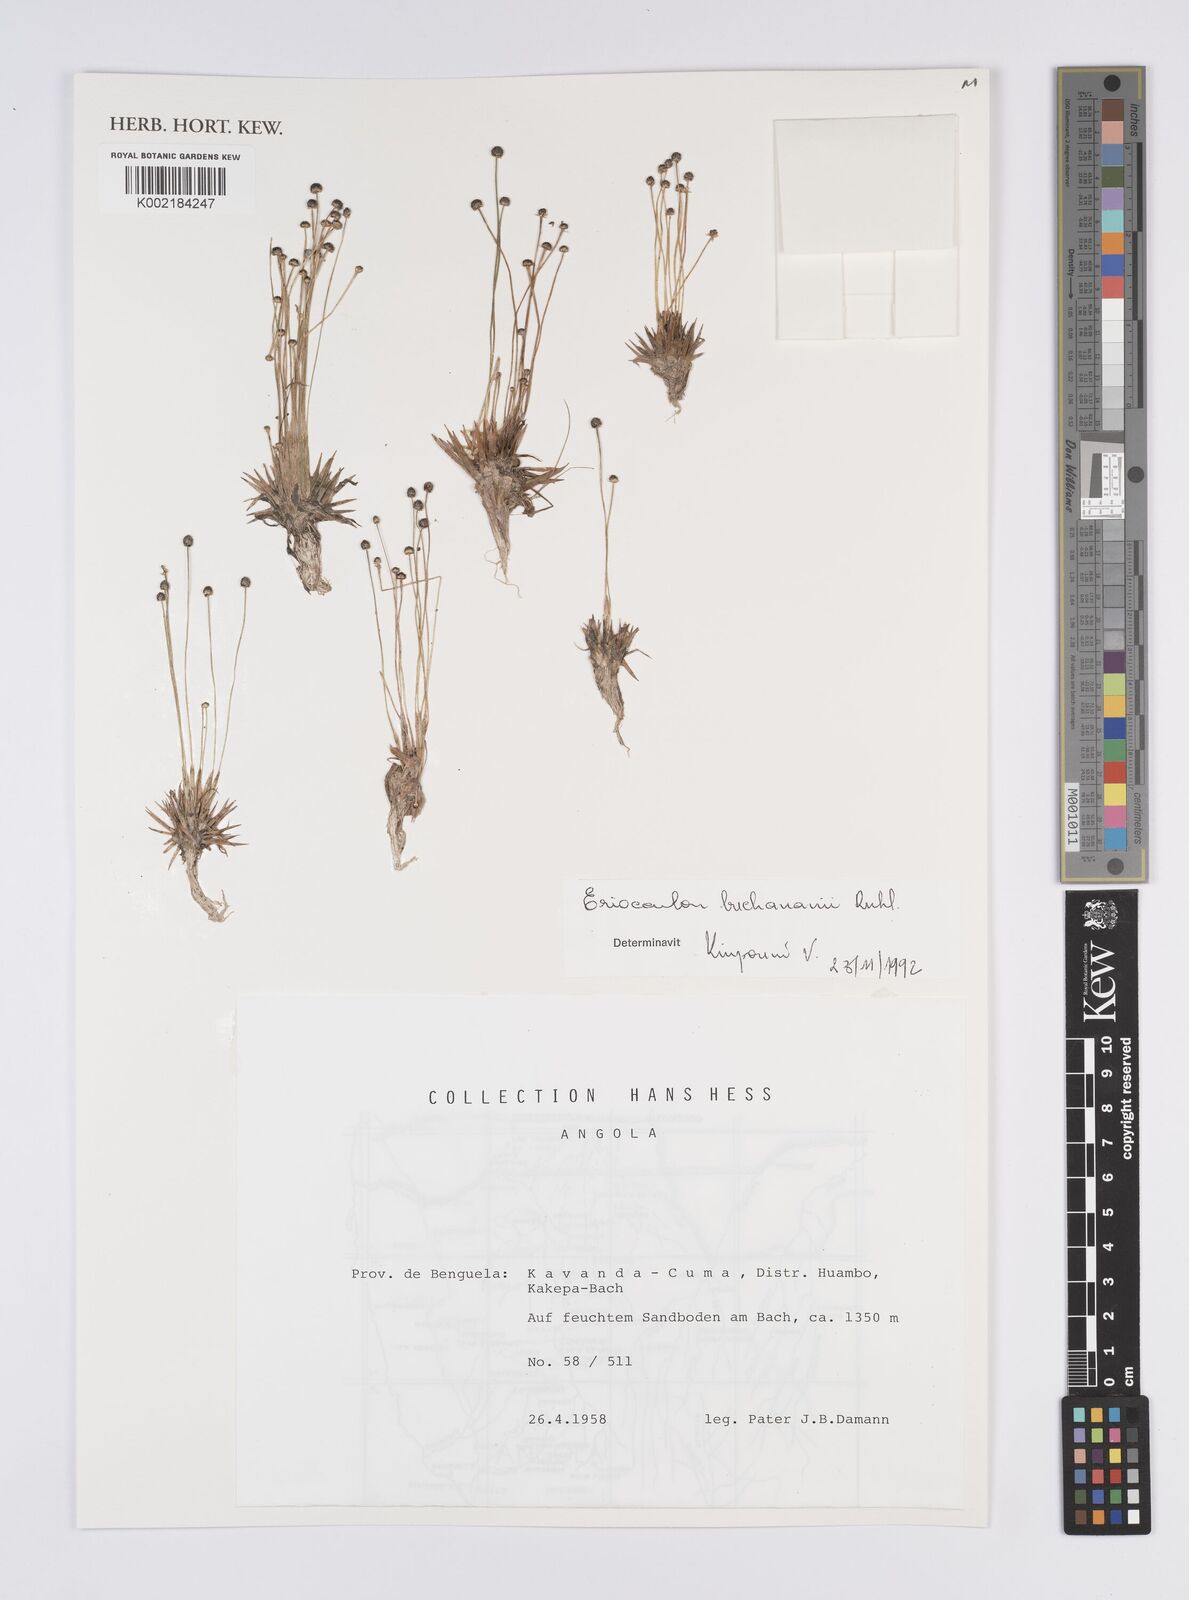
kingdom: Plantae
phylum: Tracheophyta
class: Liliopsida
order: Poales
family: Eriocaulaceae
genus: Eriocaulon
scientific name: Eriocaulon buchananii
